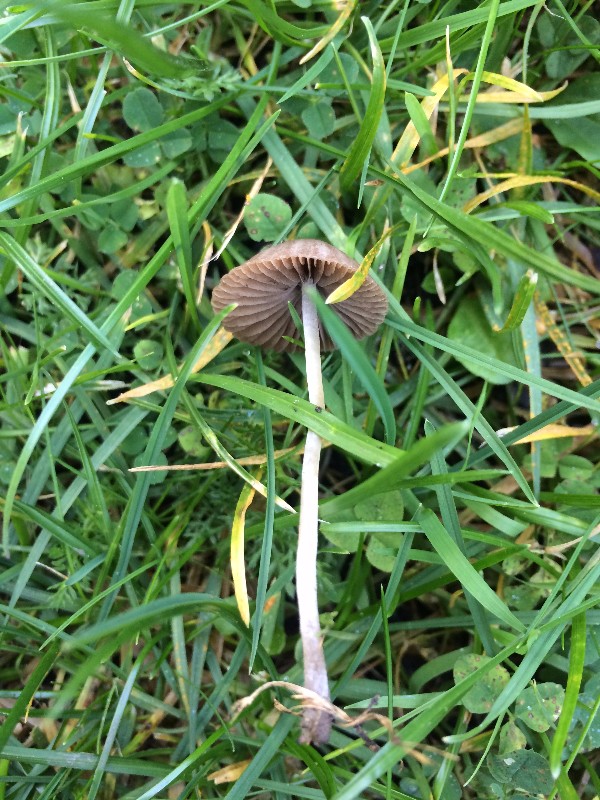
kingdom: Fungi
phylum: Basidiomycota
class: Agaricomycetes
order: Agaricales
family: Psathyrellaceae
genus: Psathyrella
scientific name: Psathyrella
